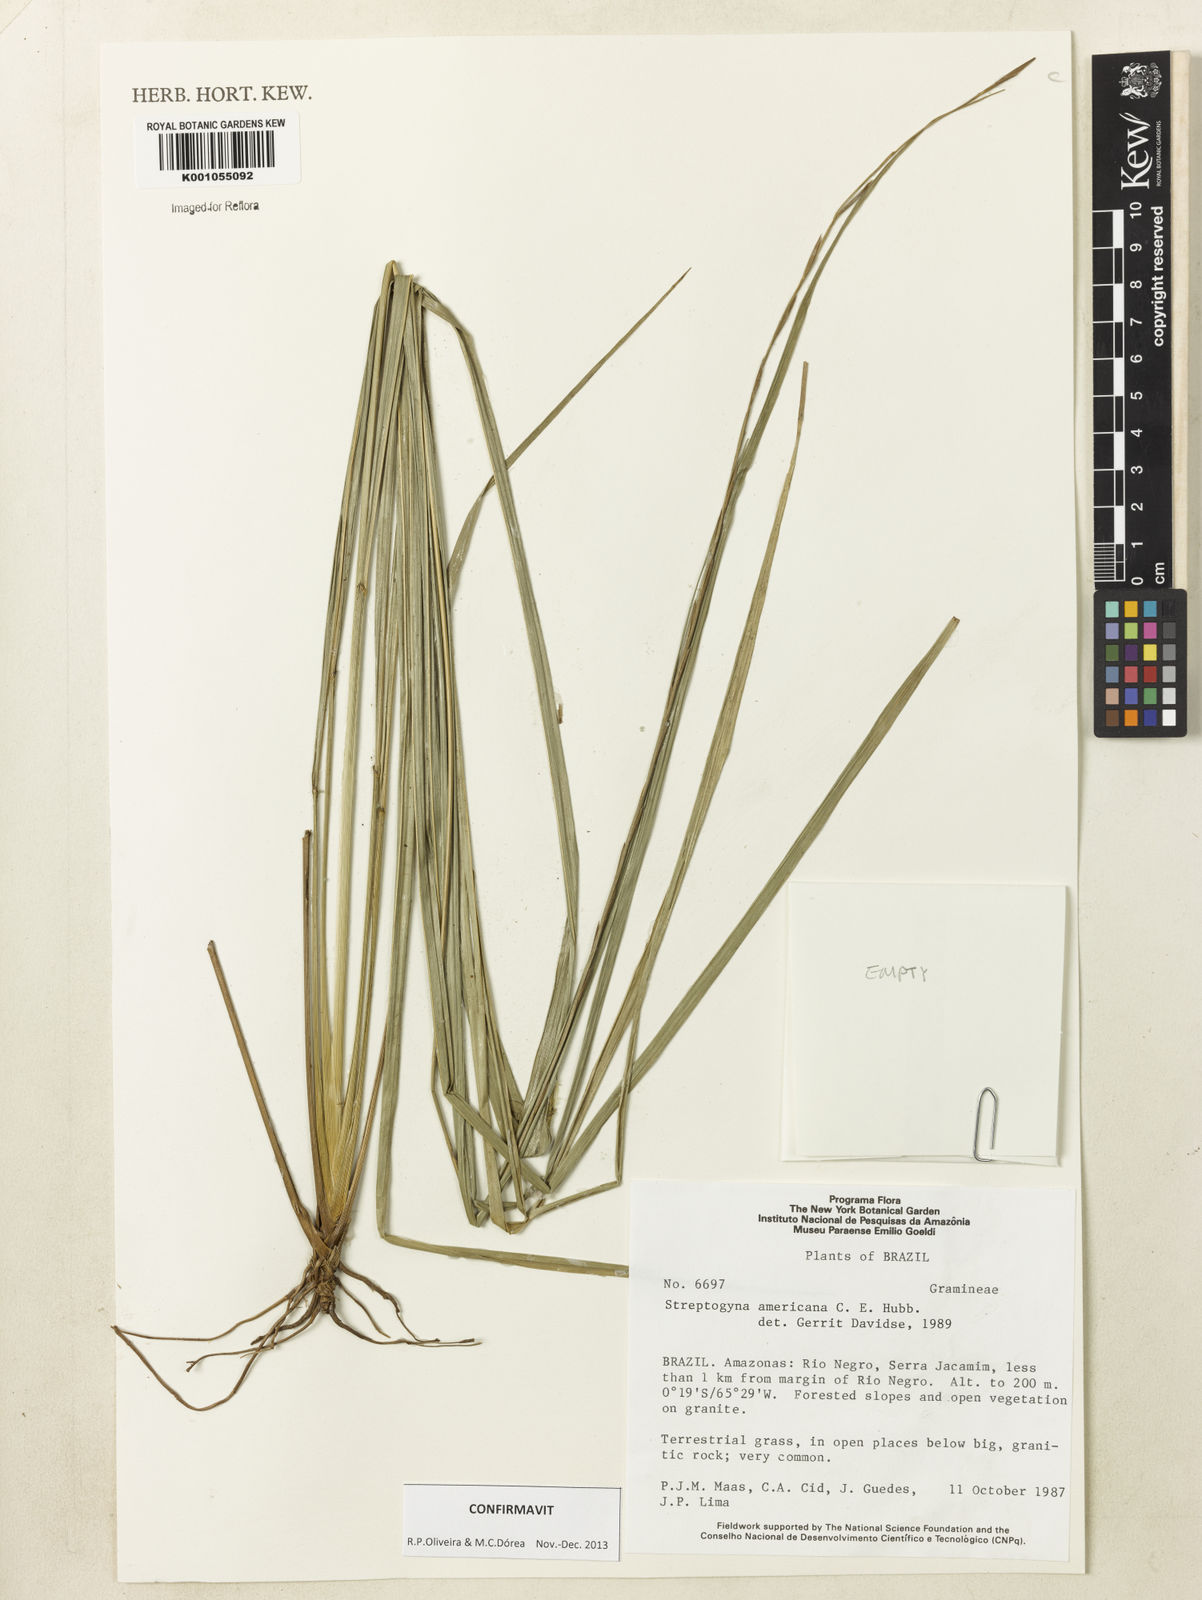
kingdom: Plantae
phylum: Tracheophyta
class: Liliopsida
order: Poales
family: Poaceae
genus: Streptogyna
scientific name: Streptogyna americana
